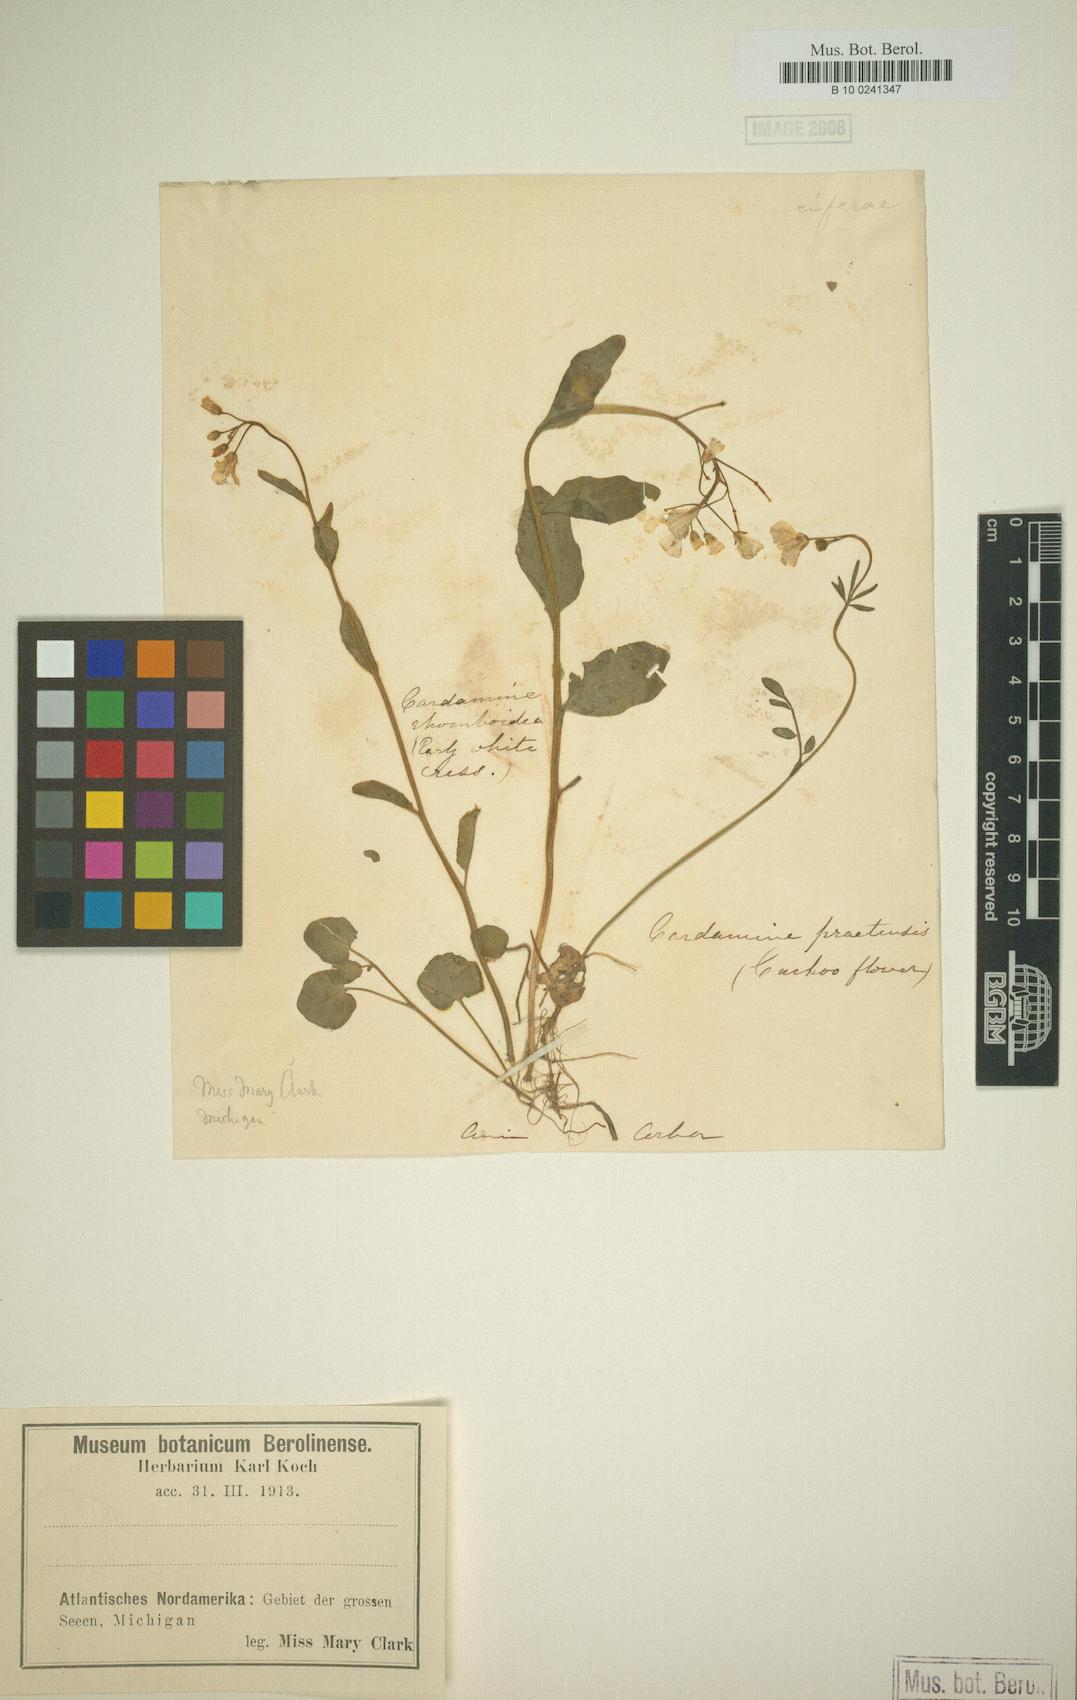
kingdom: Plantae
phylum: Tracheophyta
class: Magnoliopsida
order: Brassicales
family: Brassicaceae
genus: Cardamine
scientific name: Cardamine bulbosa
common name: Spring cress
